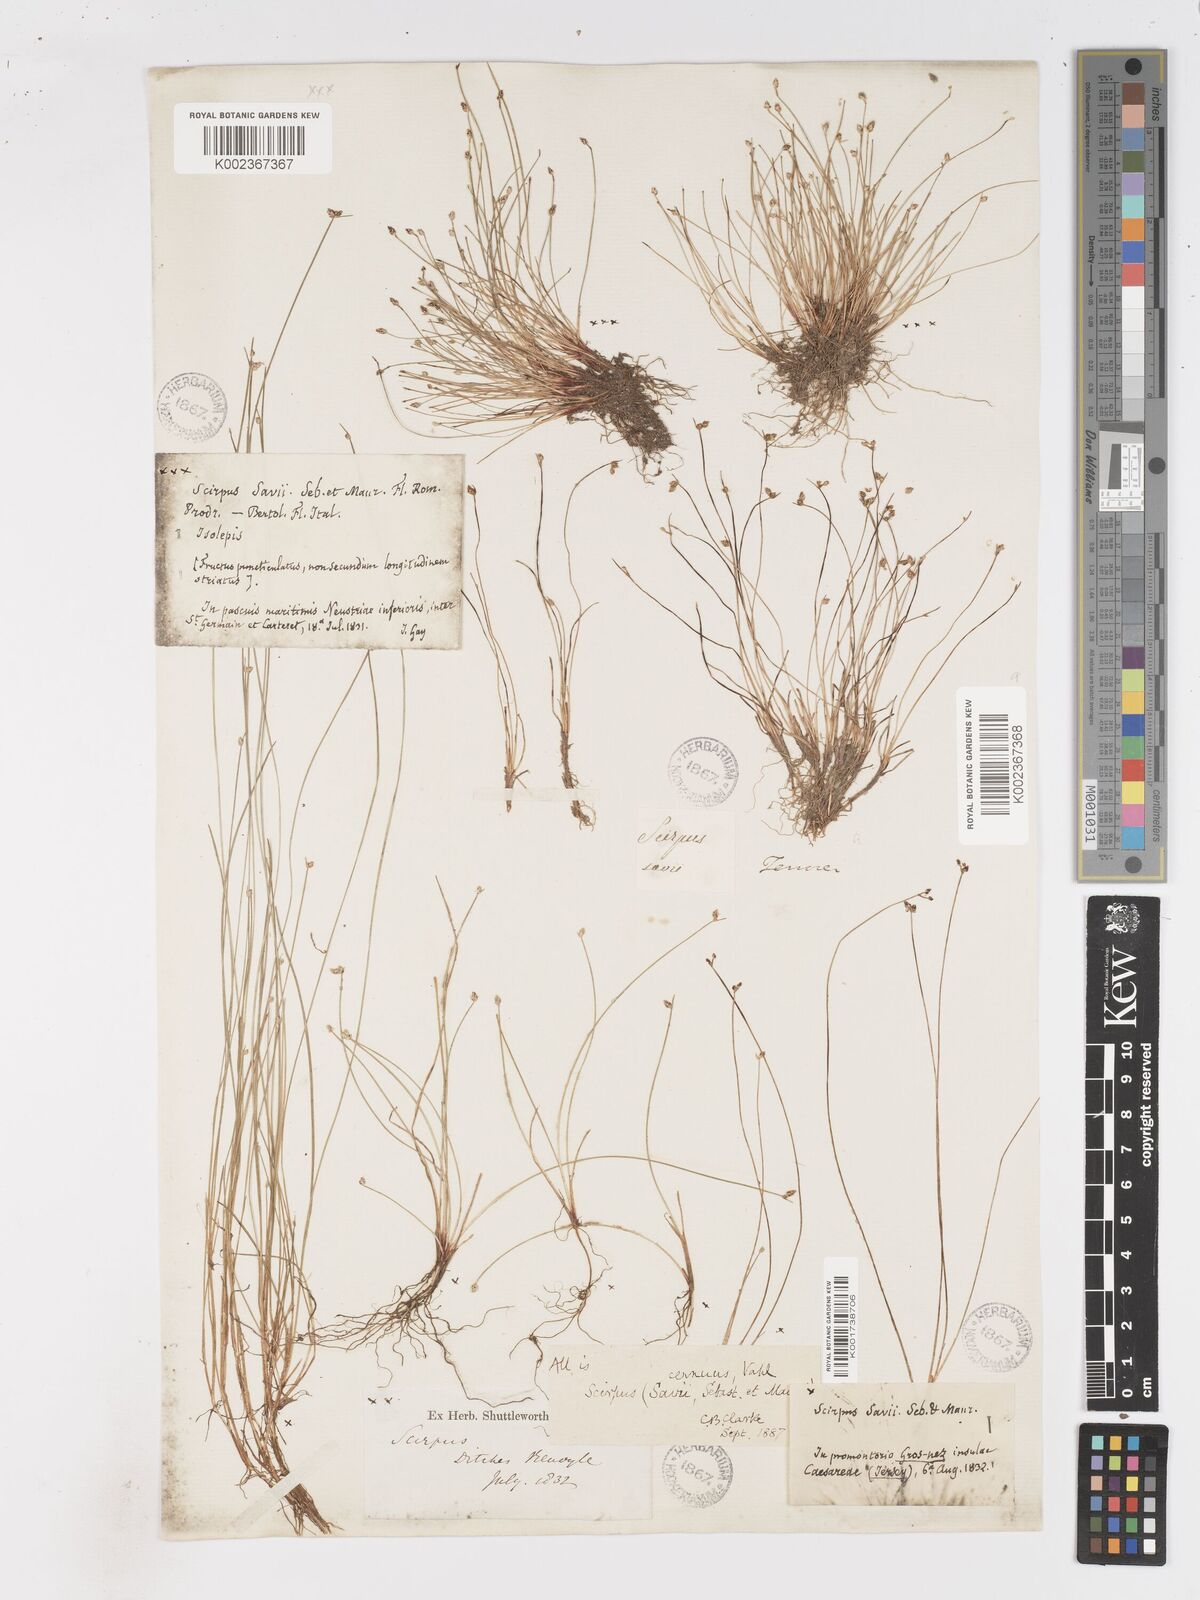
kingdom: Plantae
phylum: Tracheophyta
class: Liliopsida
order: Poales
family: Cyperaceae
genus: Isolepis
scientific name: Isolepis cernua
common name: Slender club-rush
